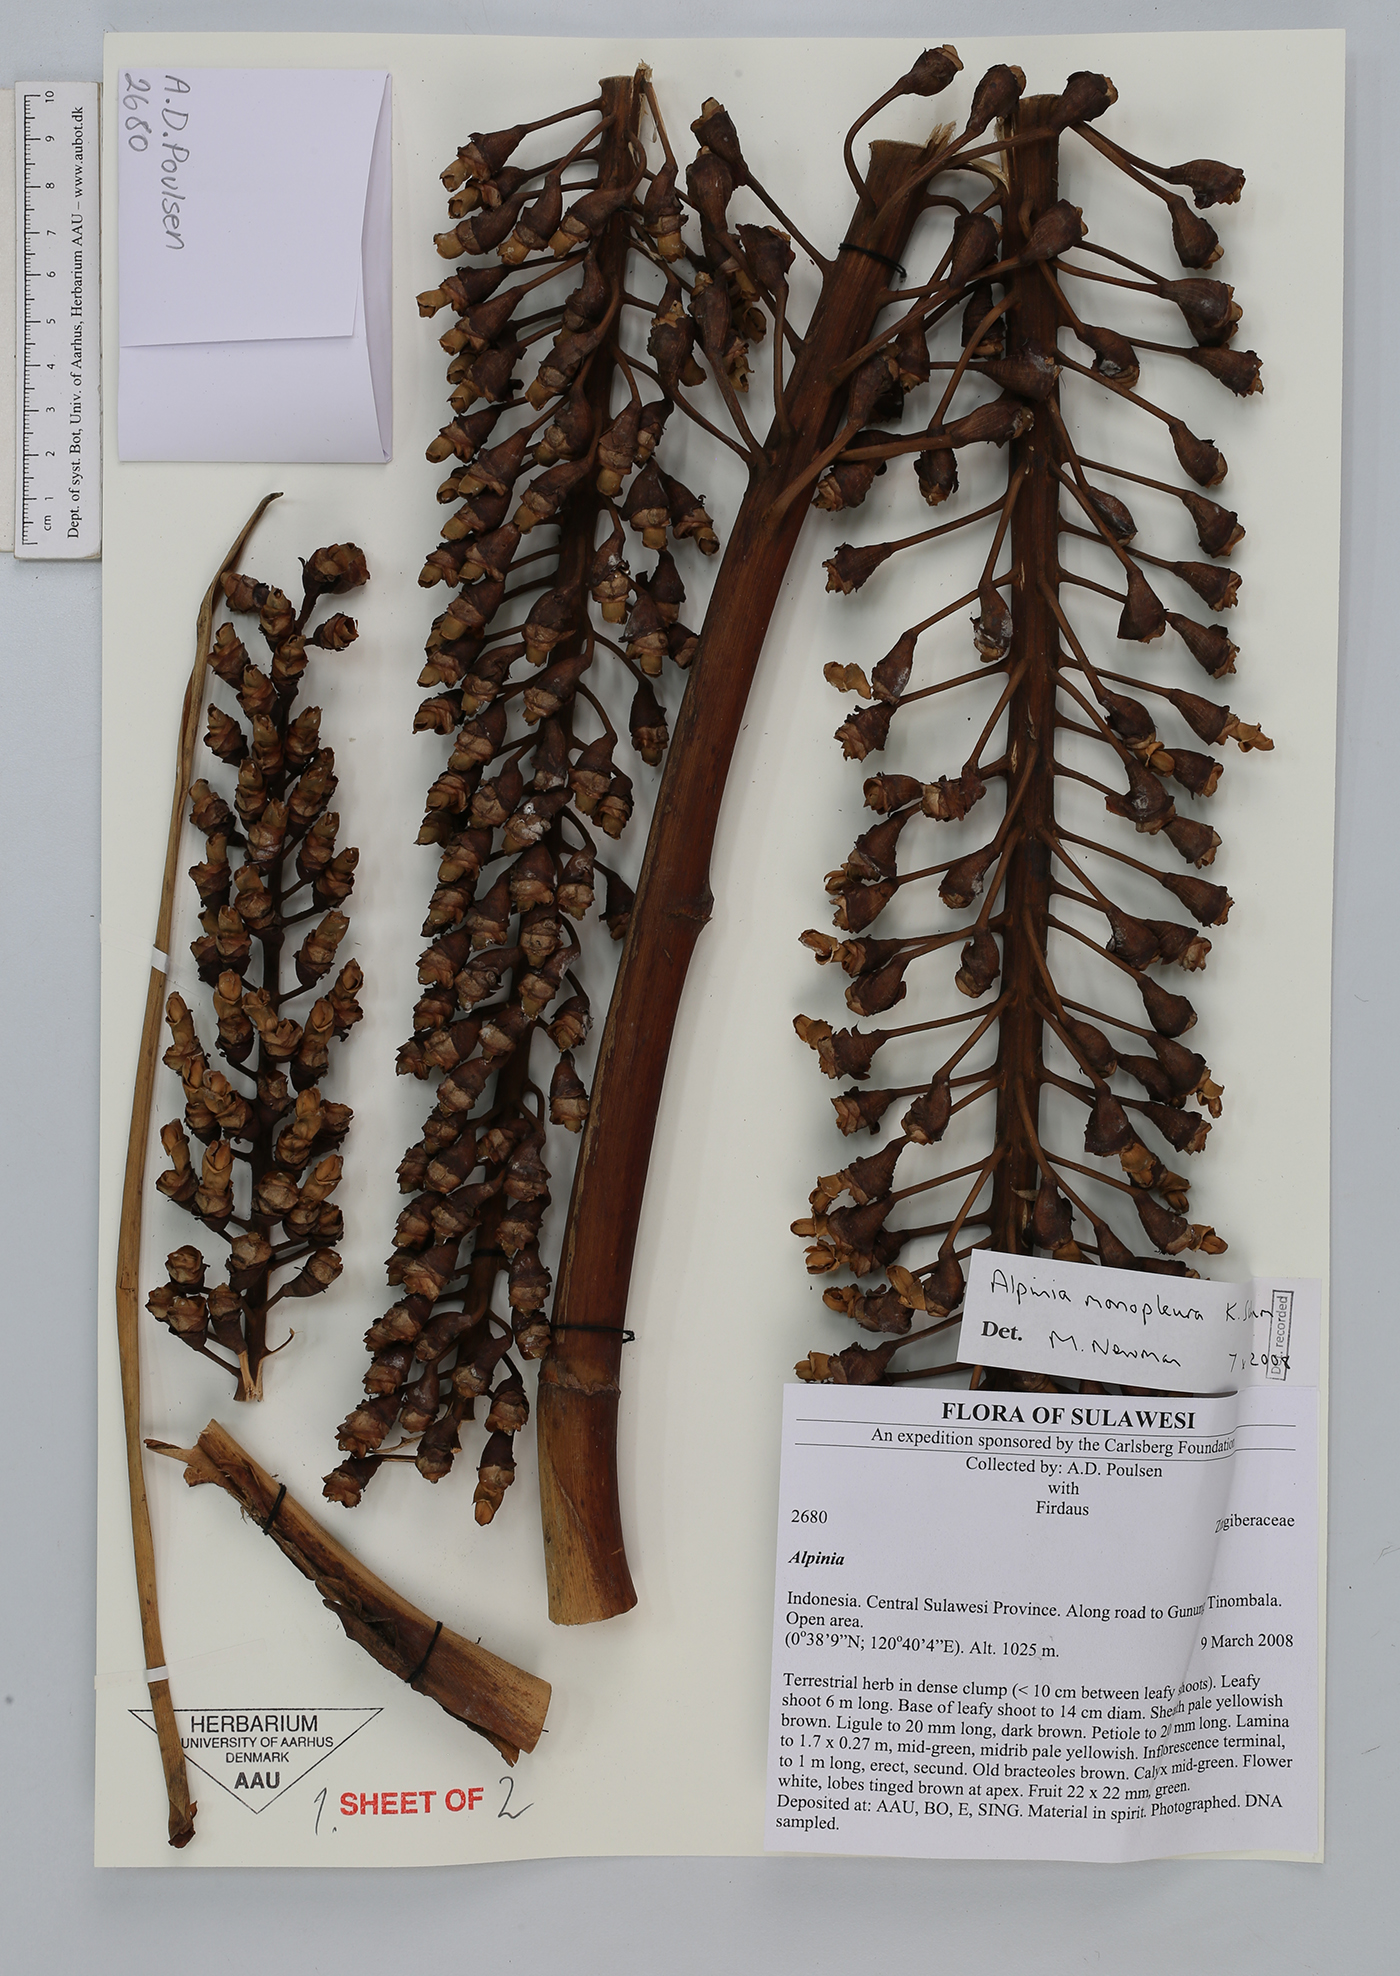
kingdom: Plantae
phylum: Tracheophyta
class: Liliopsida
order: Zingiberales
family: Zingiberaceae
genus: Alpinia
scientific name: Alpinia monopleura
